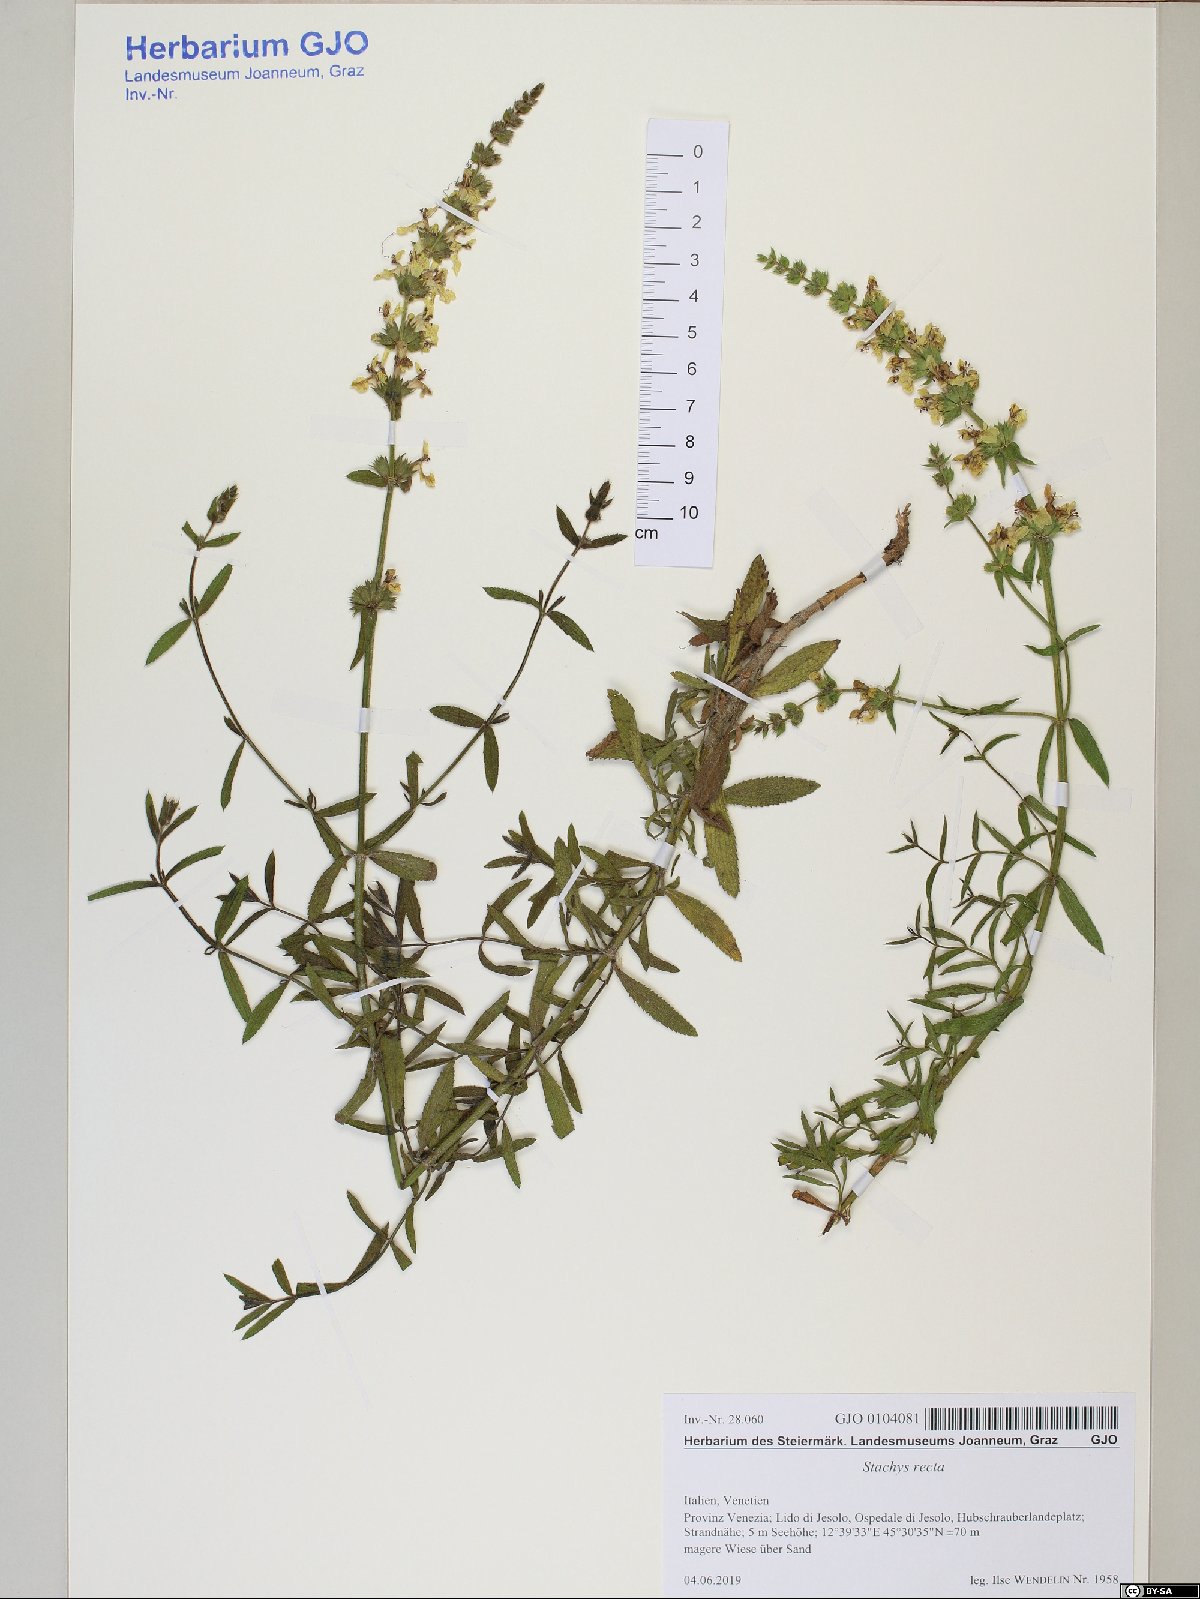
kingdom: Plantae
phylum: Tracheophyta
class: Magnoliopsida
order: Lamiales
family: Lamiaceae
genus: Stachys
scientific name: Stachys recta
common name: Perennial yellow-woundwort
